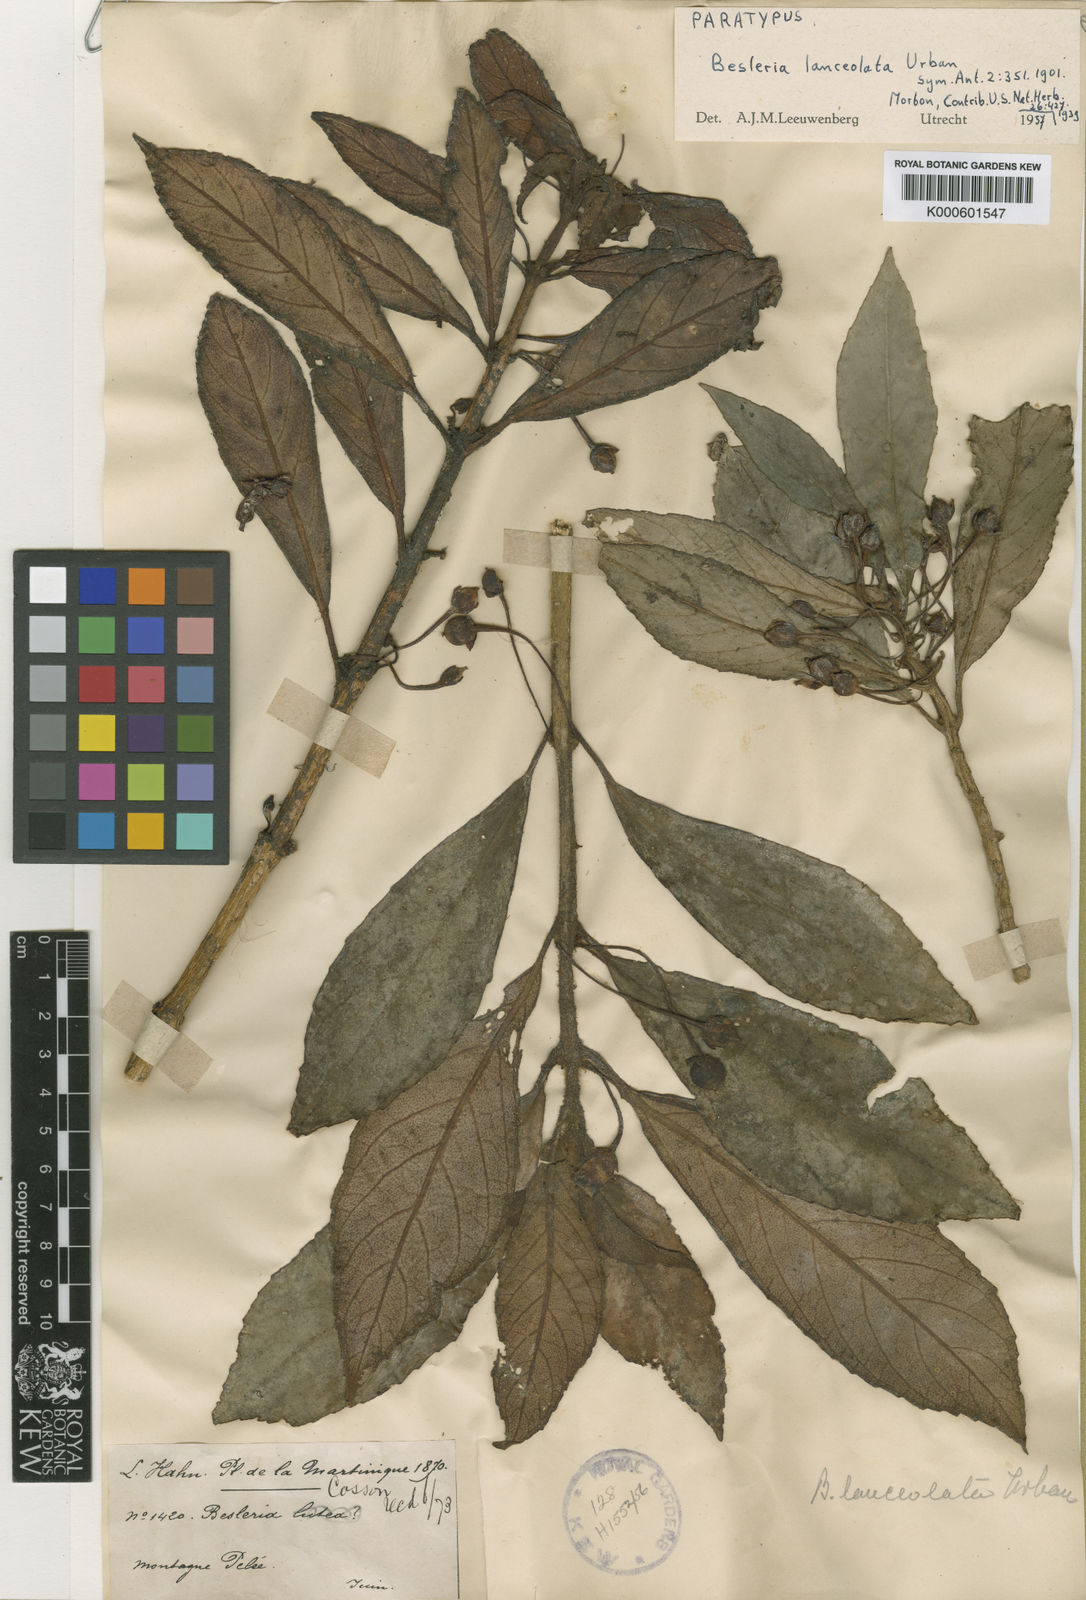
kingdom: Plantae
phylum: Tracheophyta
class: Magnoliopsida
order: Lamiales
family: Gesneriaceae
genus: Besleria
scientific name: Besleria lanceolata
